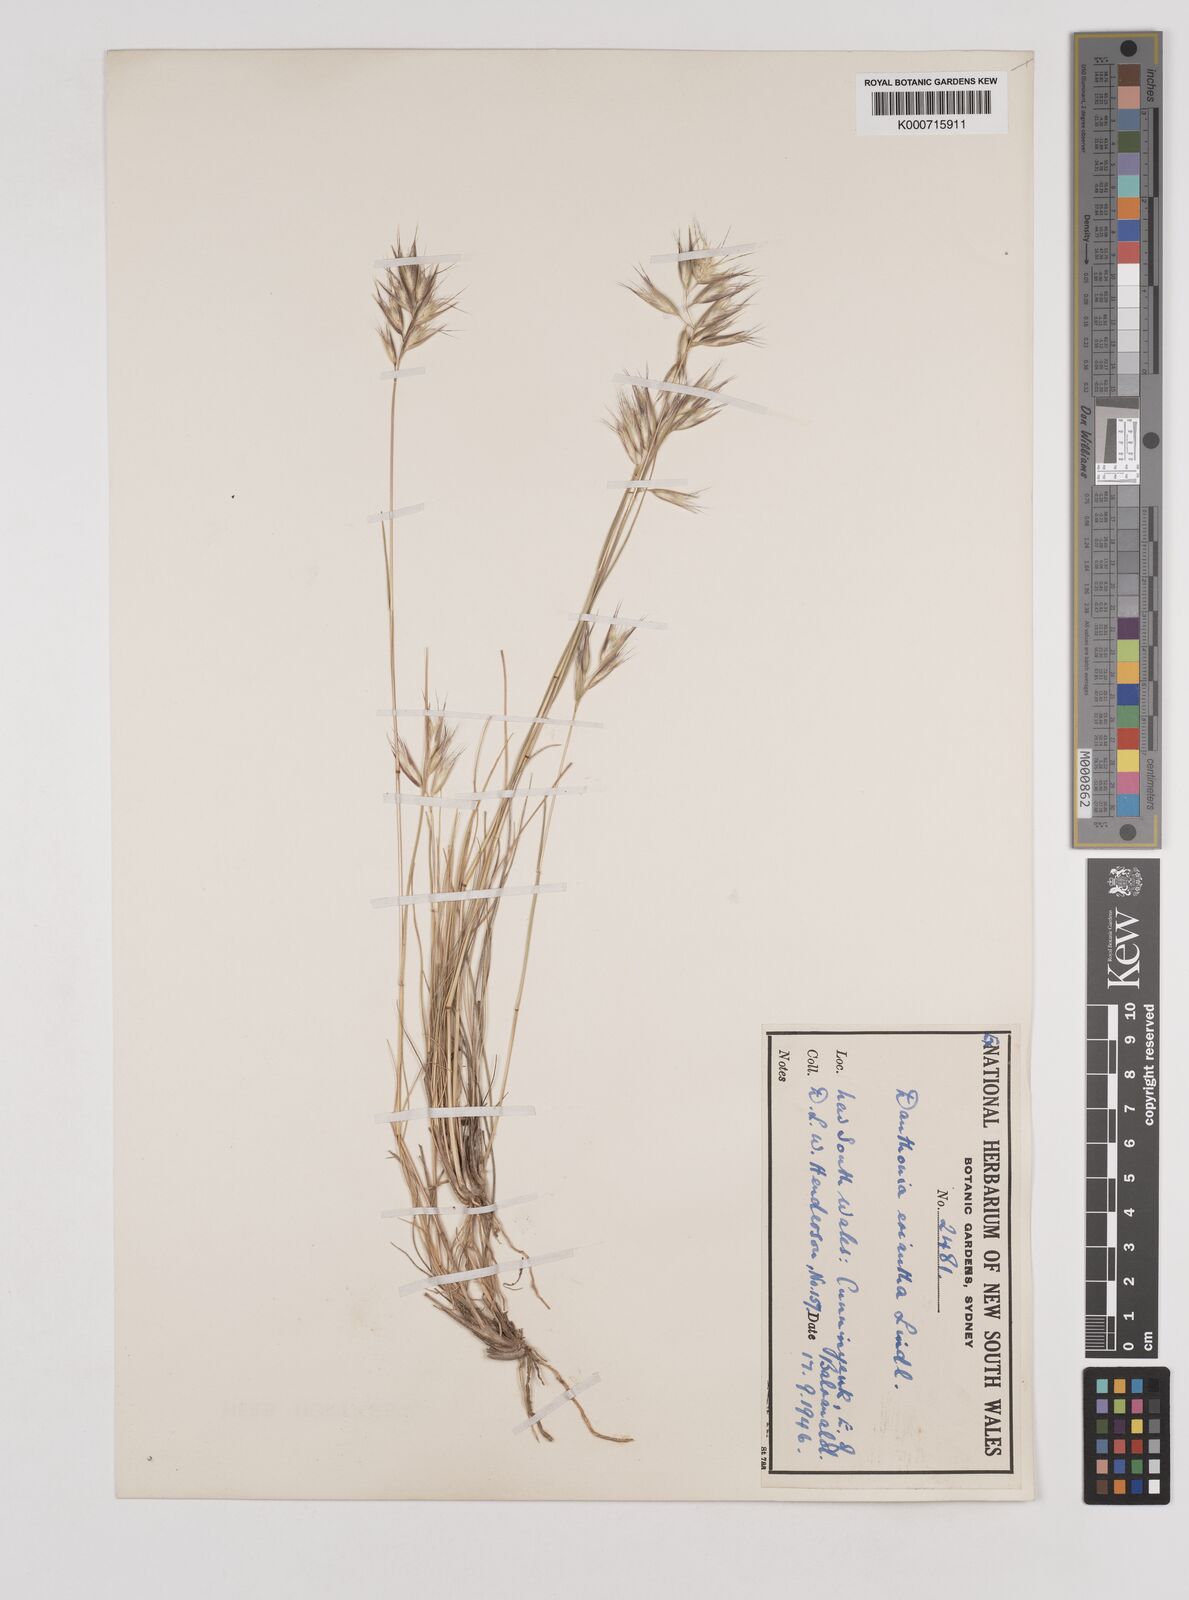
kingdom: Plantae
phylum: Tracheophyta
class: Liliopsida
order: Poales
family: Poaceae
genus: Rytidosperma
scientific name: Rytidosperma erianthum
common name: Hill wallaby grass
